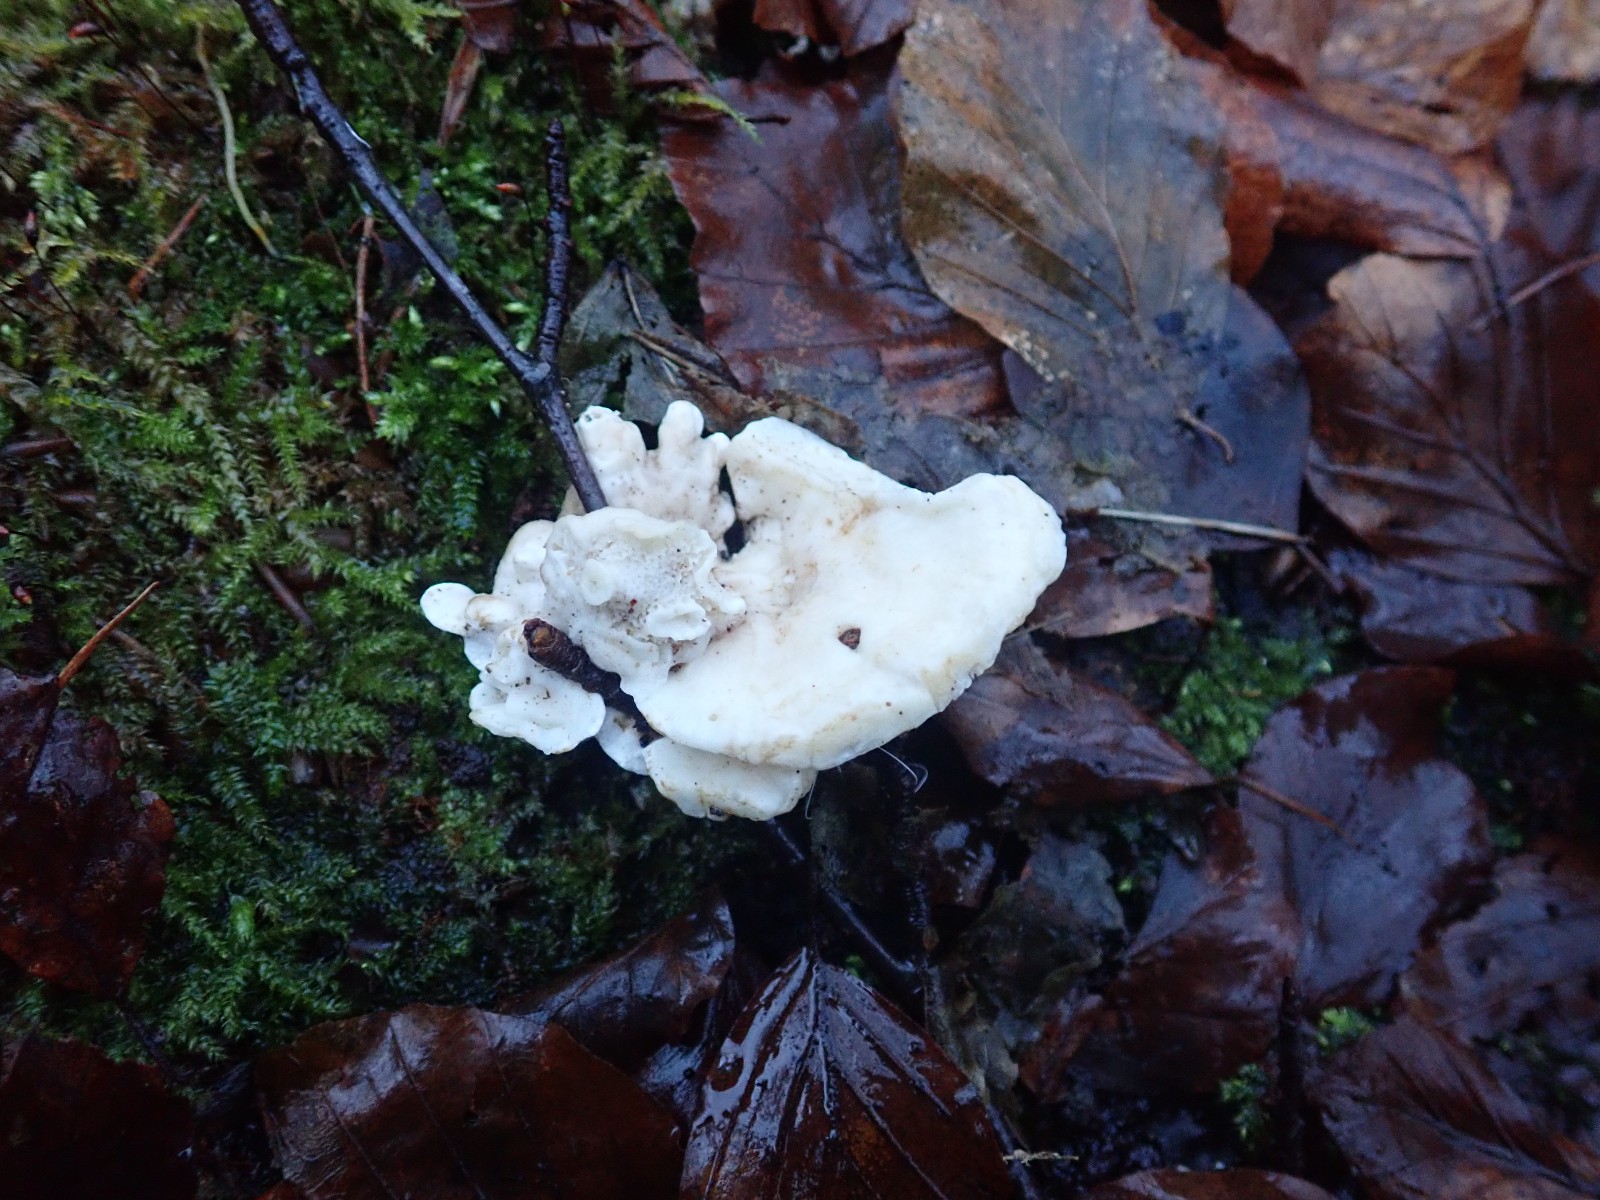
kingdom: Fungi
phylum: Basidiomycota
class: Agaricomycetes
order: Polyporales
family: Polyporaceae
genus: Trametes
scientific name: Trametes gibbosa
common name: puklet læderporesvamp
